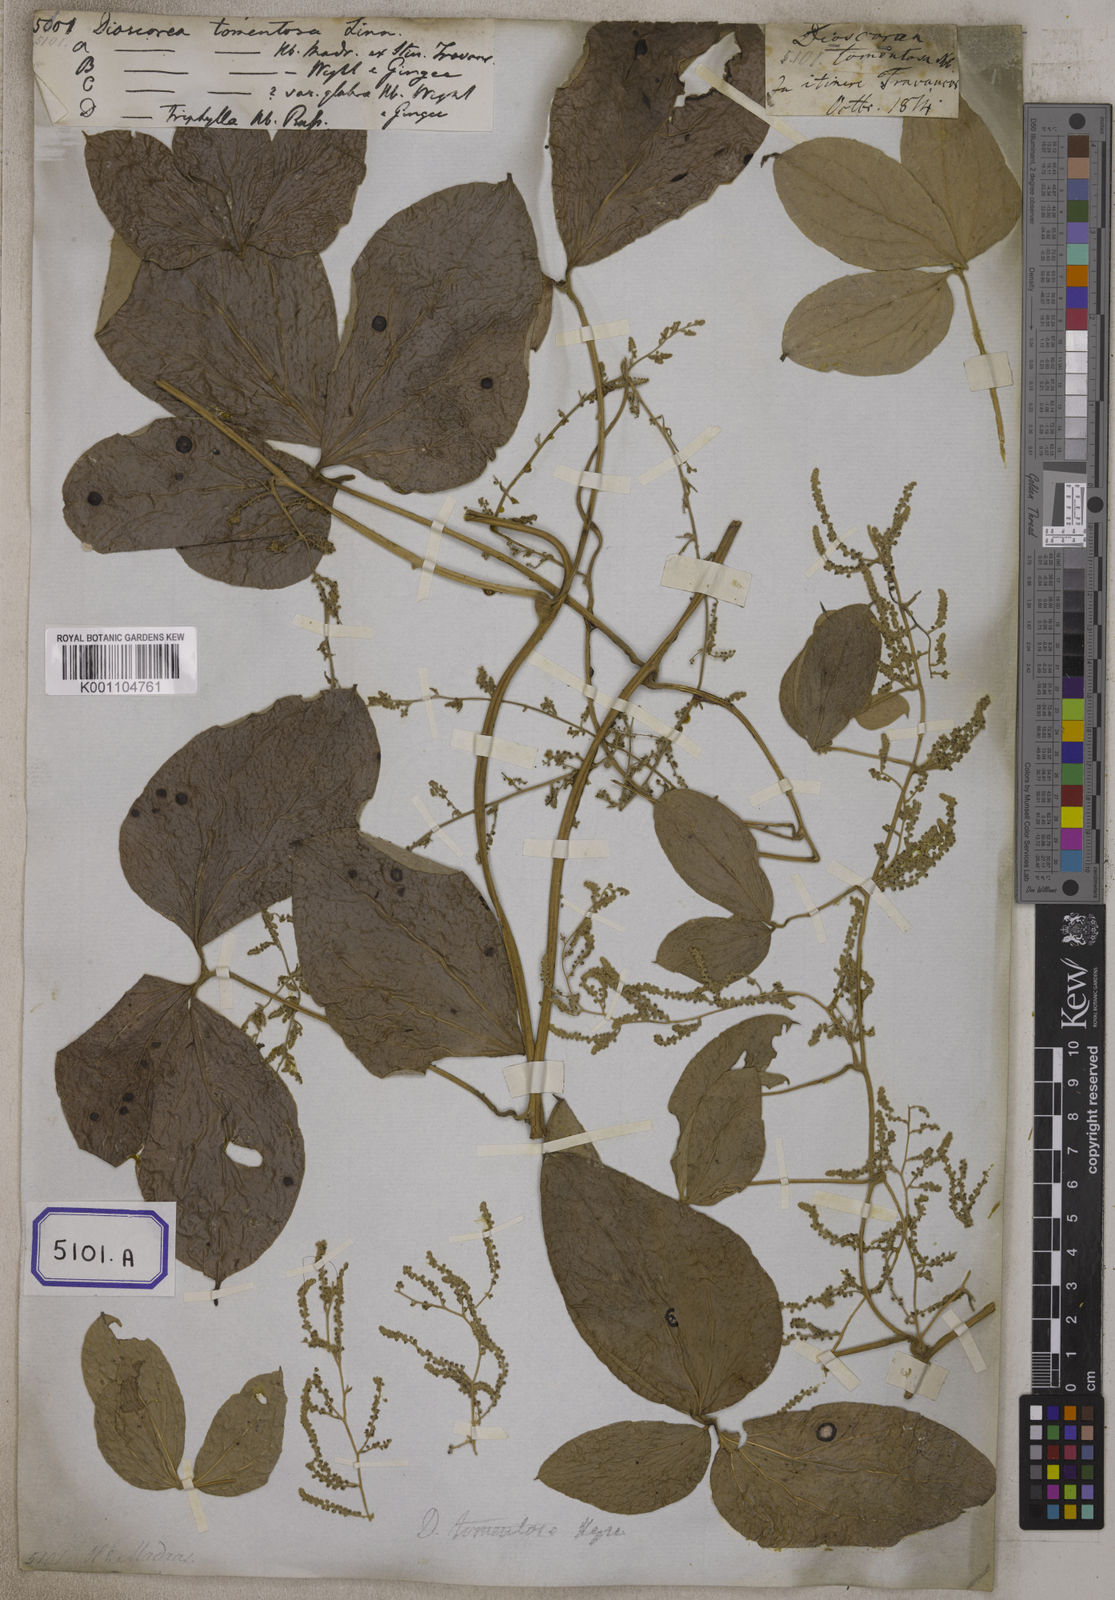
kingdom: Plantae
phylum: Tracheophyta
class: Liliopsida
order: Dioscoreales
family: Dioscoreaceae
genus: Dioscorea
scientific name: Dioscorea
